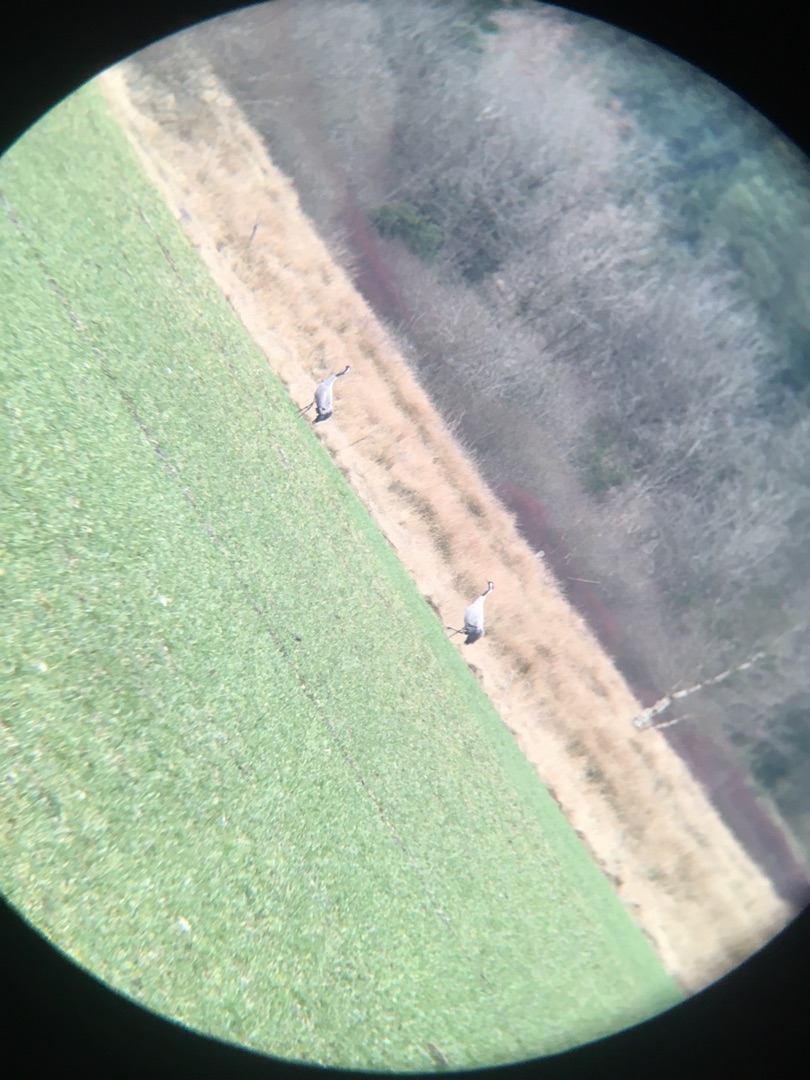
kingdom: Animalia
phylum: Chordata
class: Aves
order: Gruiformes
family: Gruidae
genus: Grus
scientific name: Grus grus
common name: Trane
